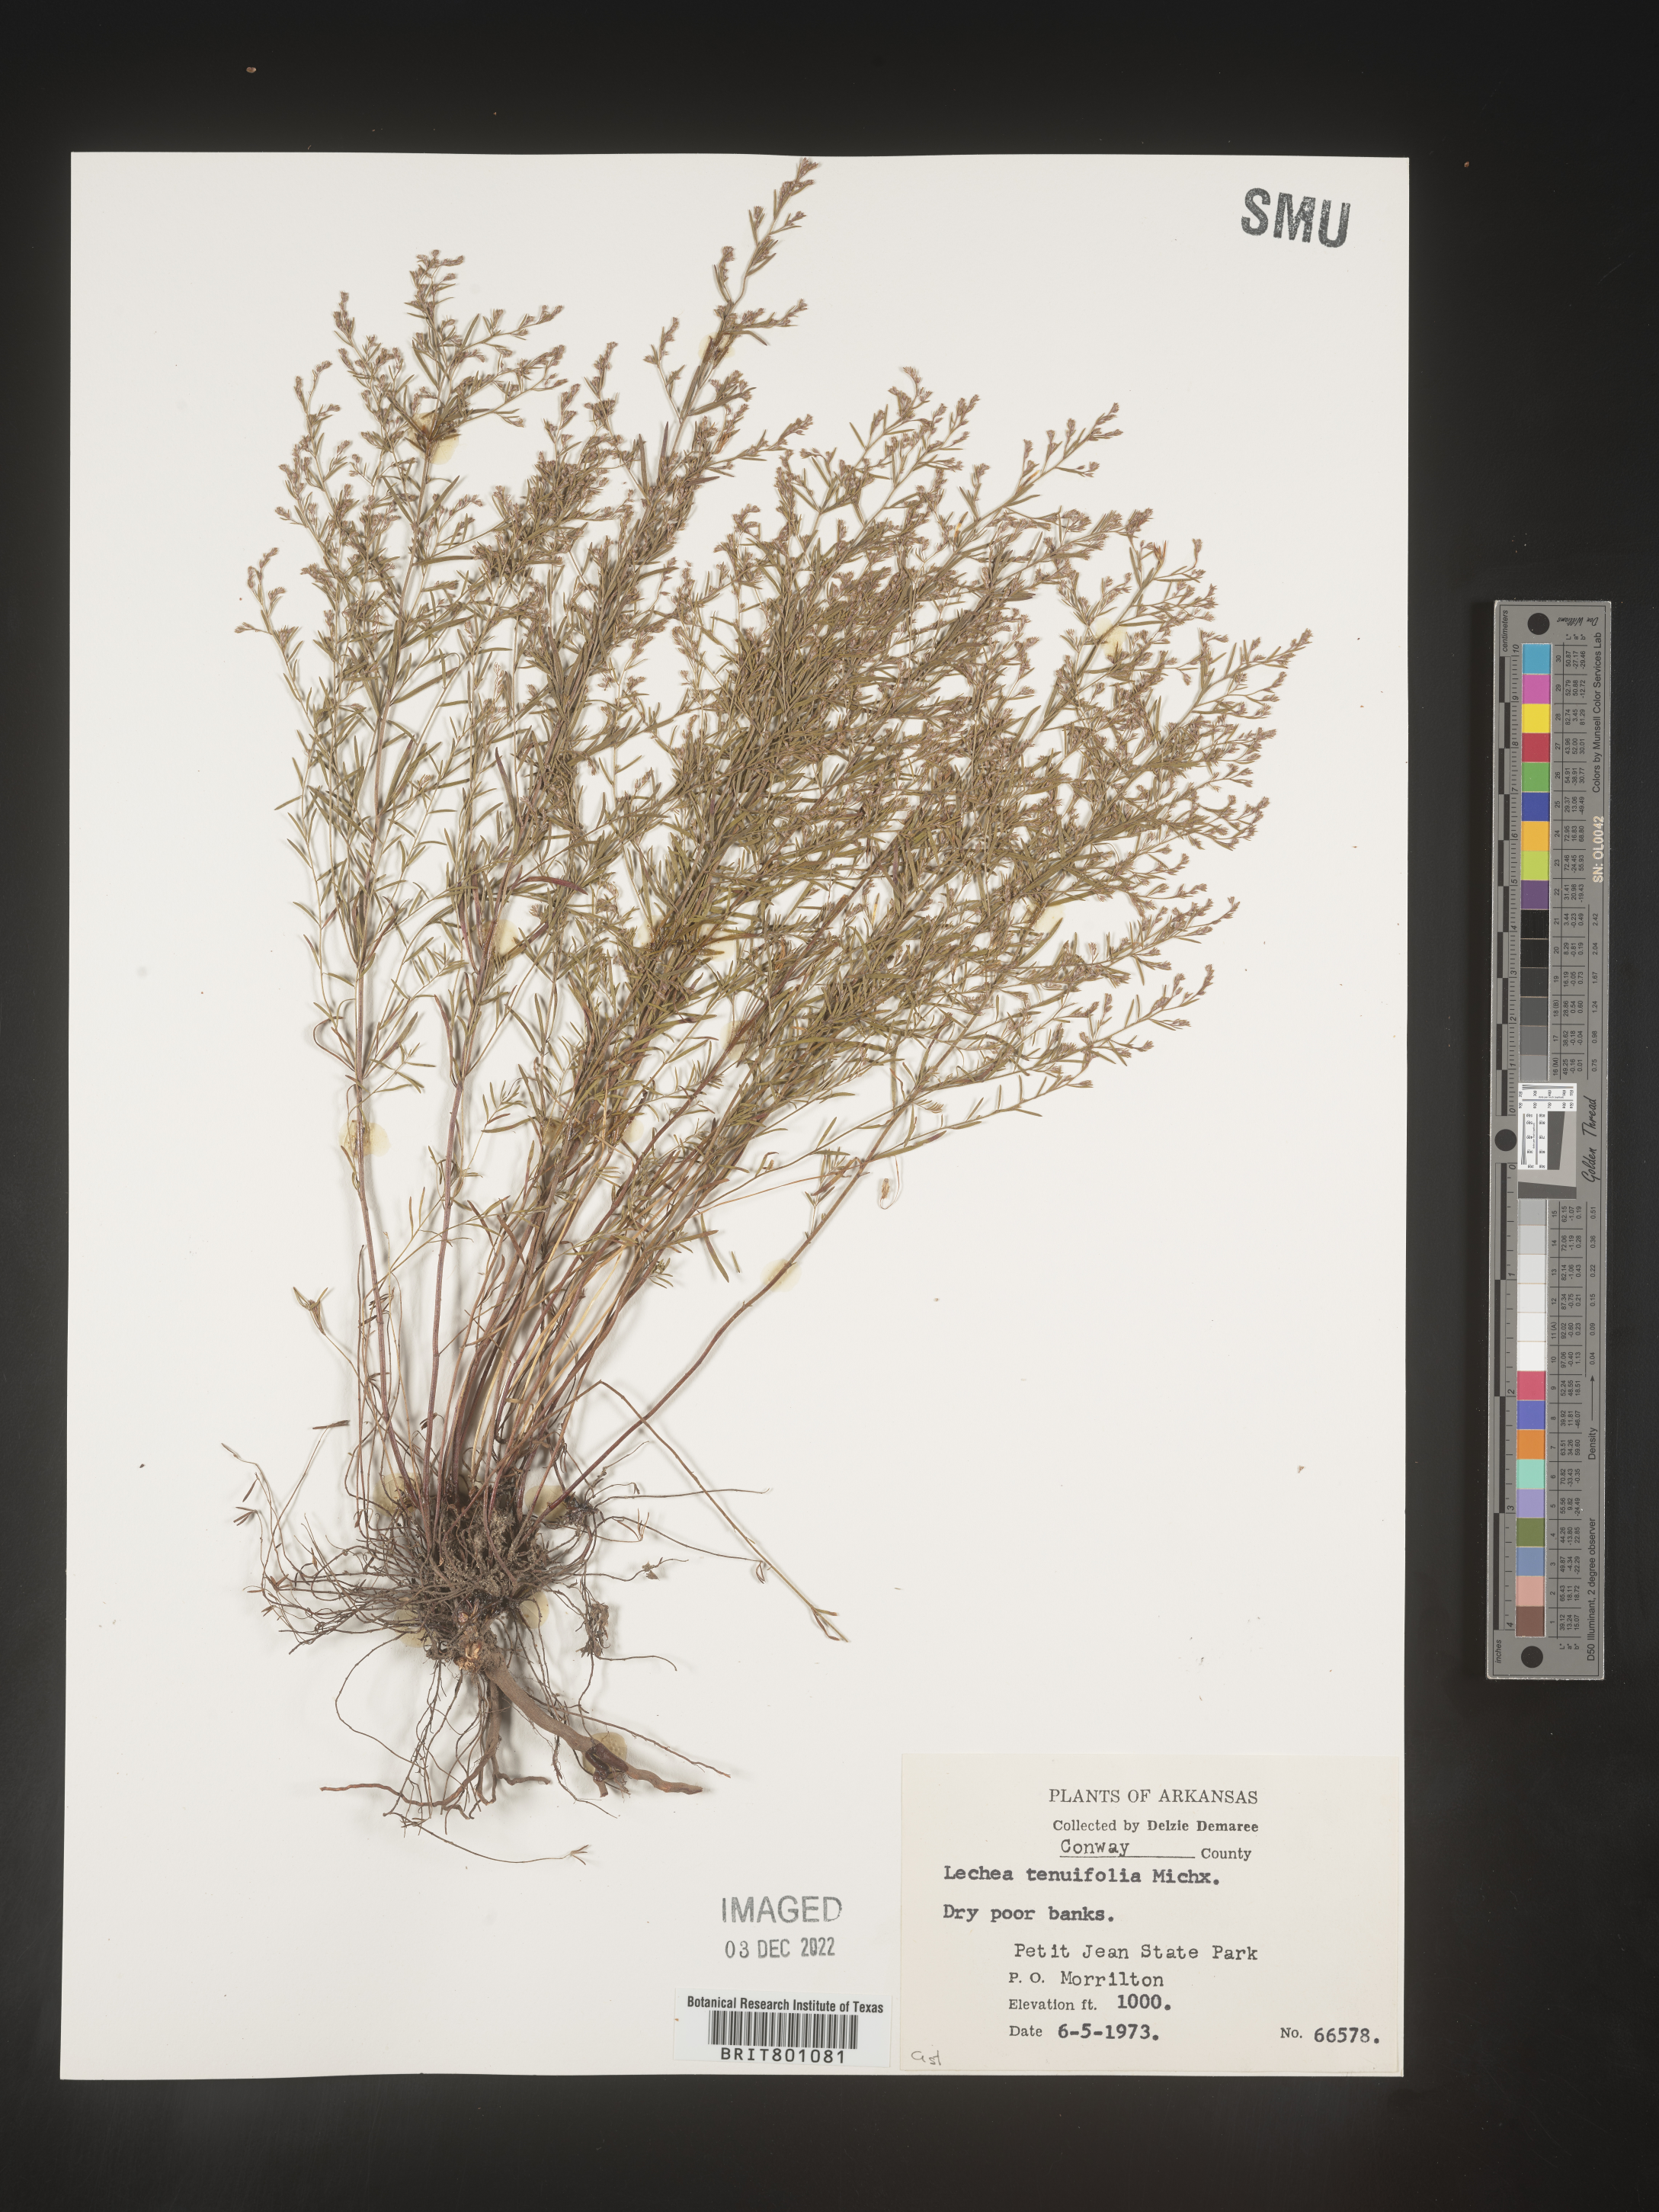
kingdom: Plantae
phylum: Tracheophyta
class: Magnoliopsida
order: Malvales
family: Cistaceae
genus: Lechea
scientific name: Lechea tenuifolia
